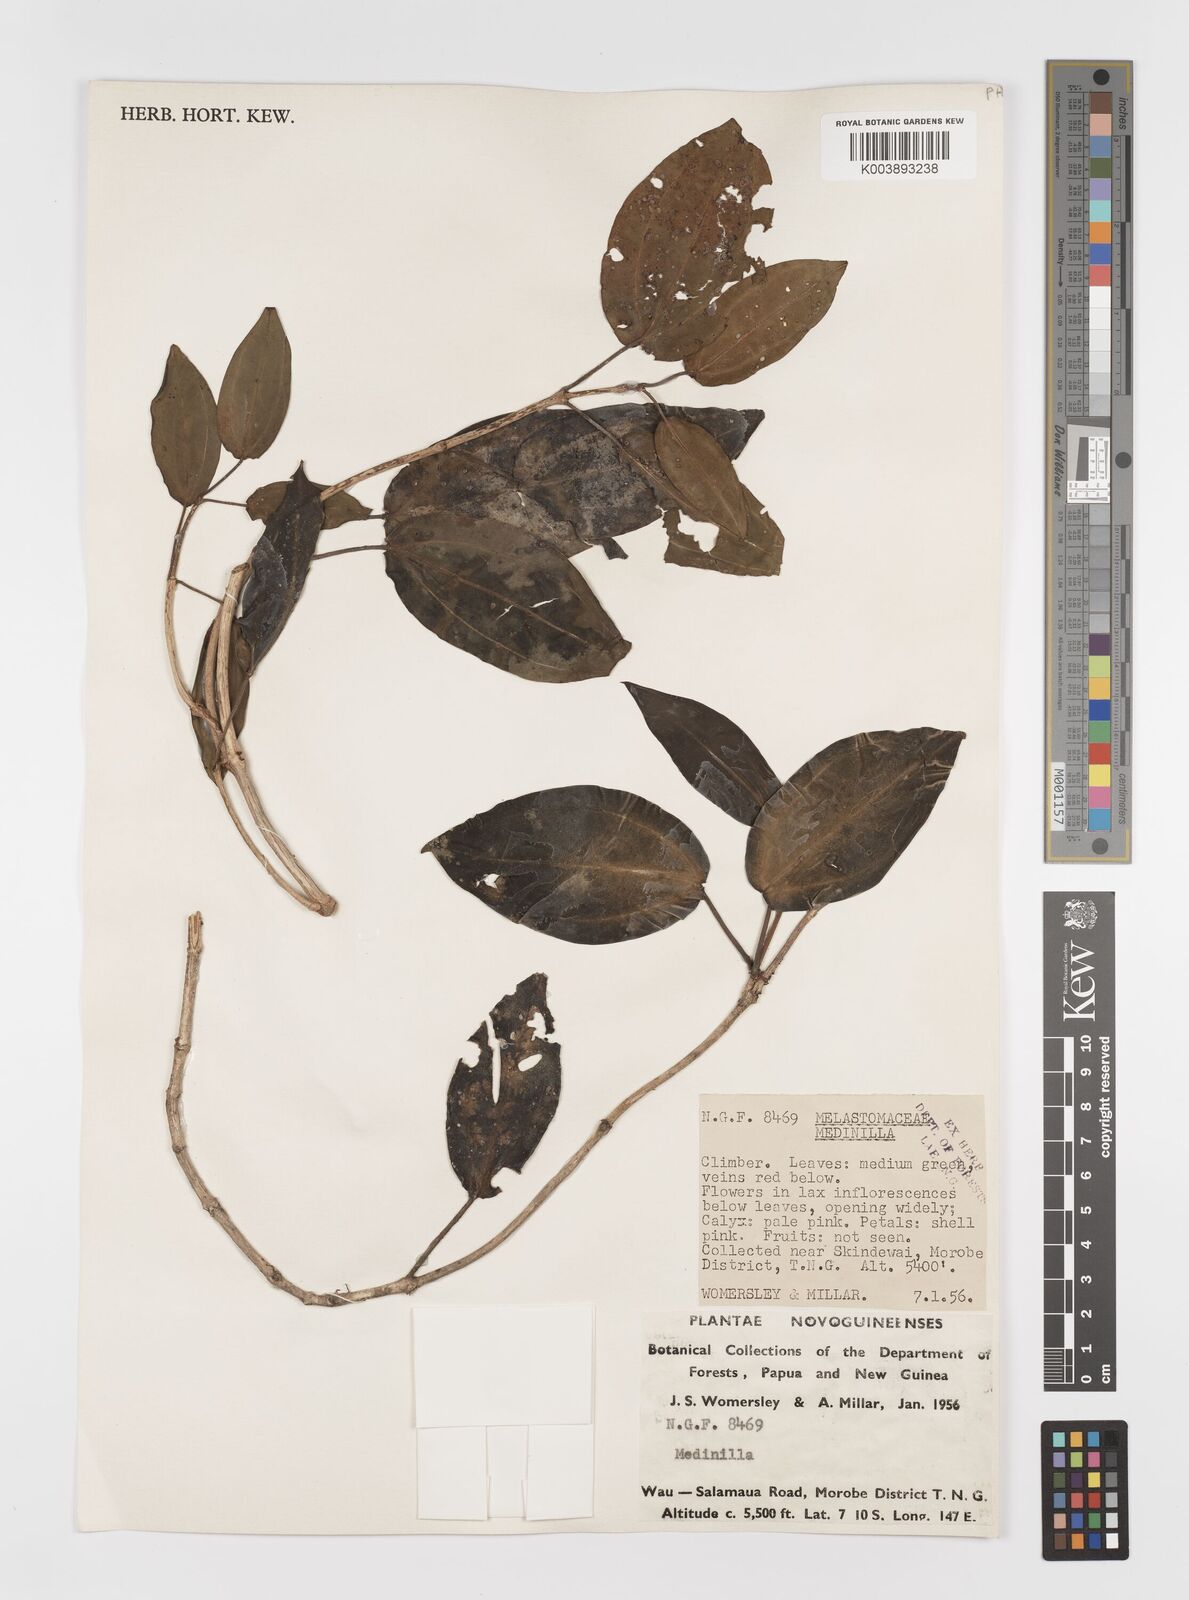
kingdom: Plantae
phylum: Tracheophyta
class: Magnoliopsida
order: Myrtales
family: Melastomataceae
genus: Medinilla
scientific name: Medinilla
